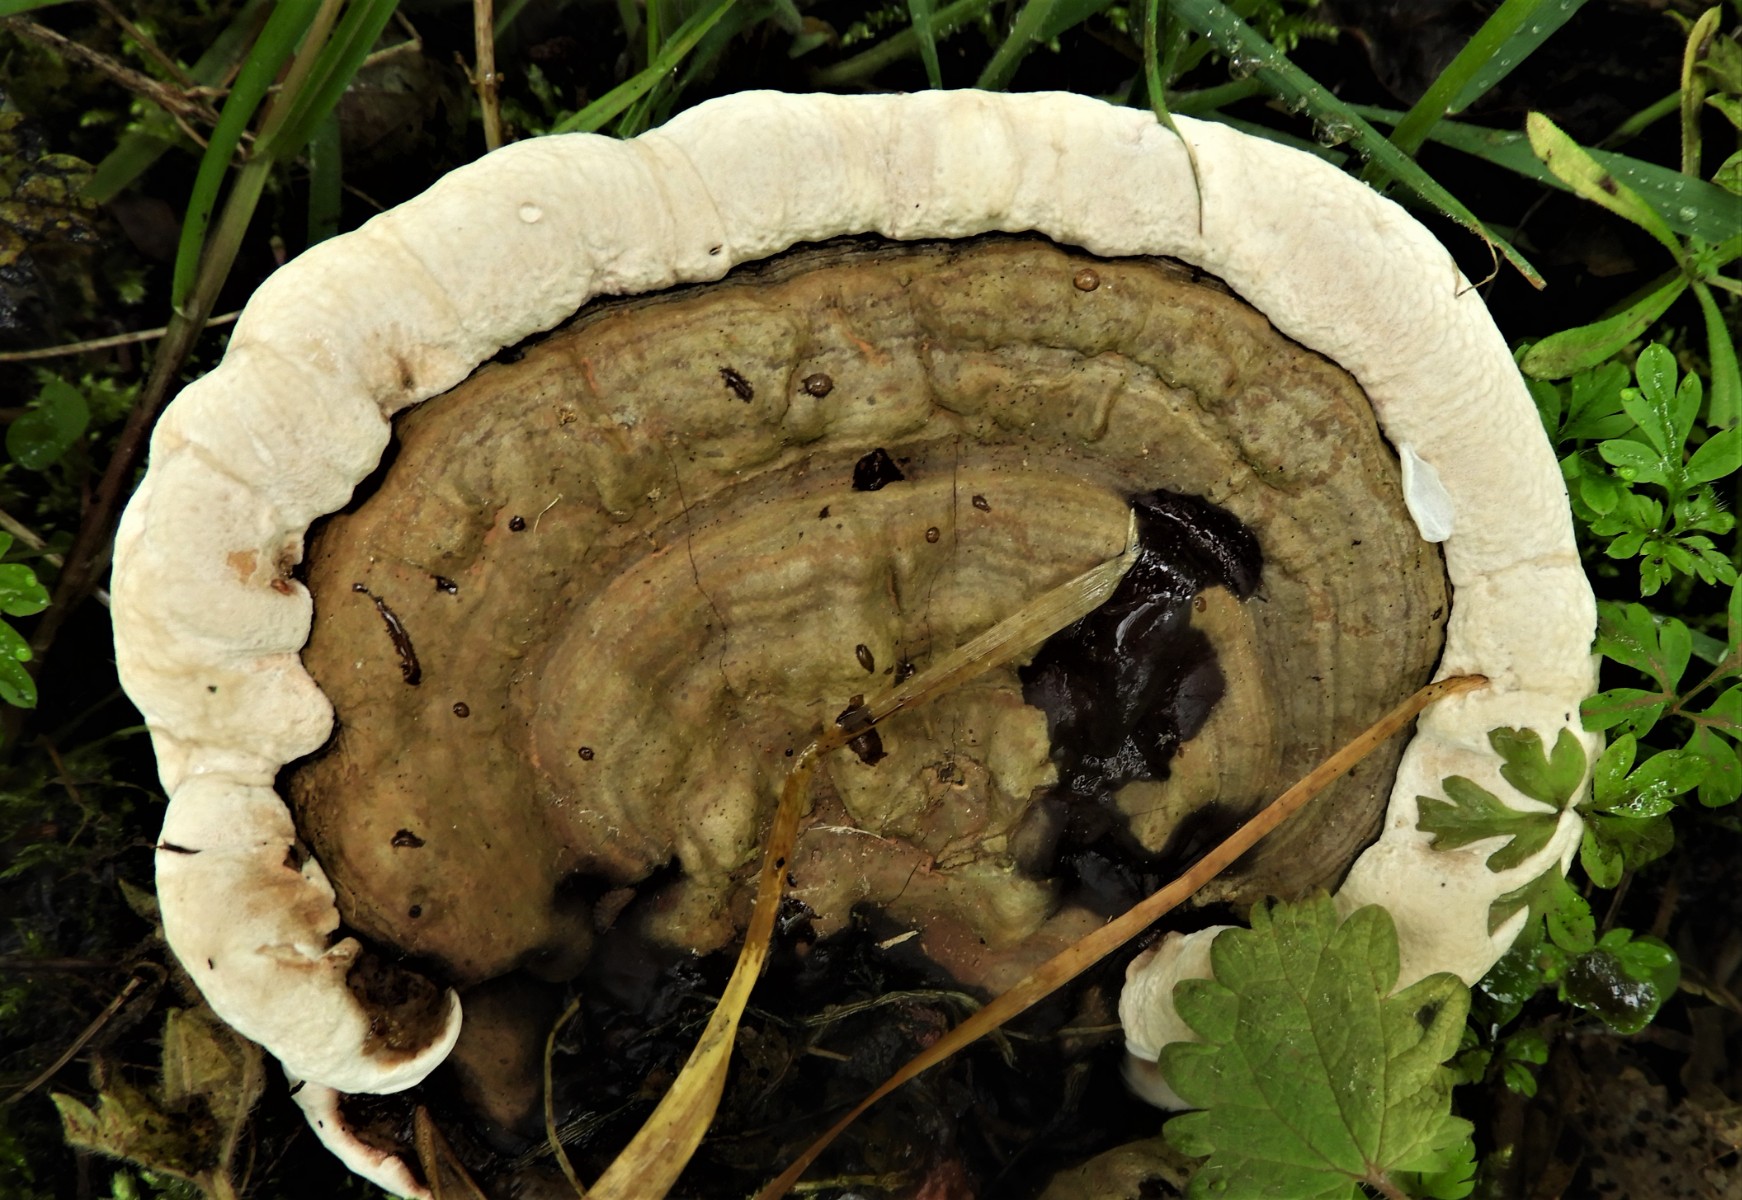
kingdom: Fungi
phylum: Basidiomycota
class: Agaricomycetes
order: Polyporales
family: Polyporaceae
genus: Ganoderma
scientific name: Ganoderma applanatum
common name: flad lakporesvamp
